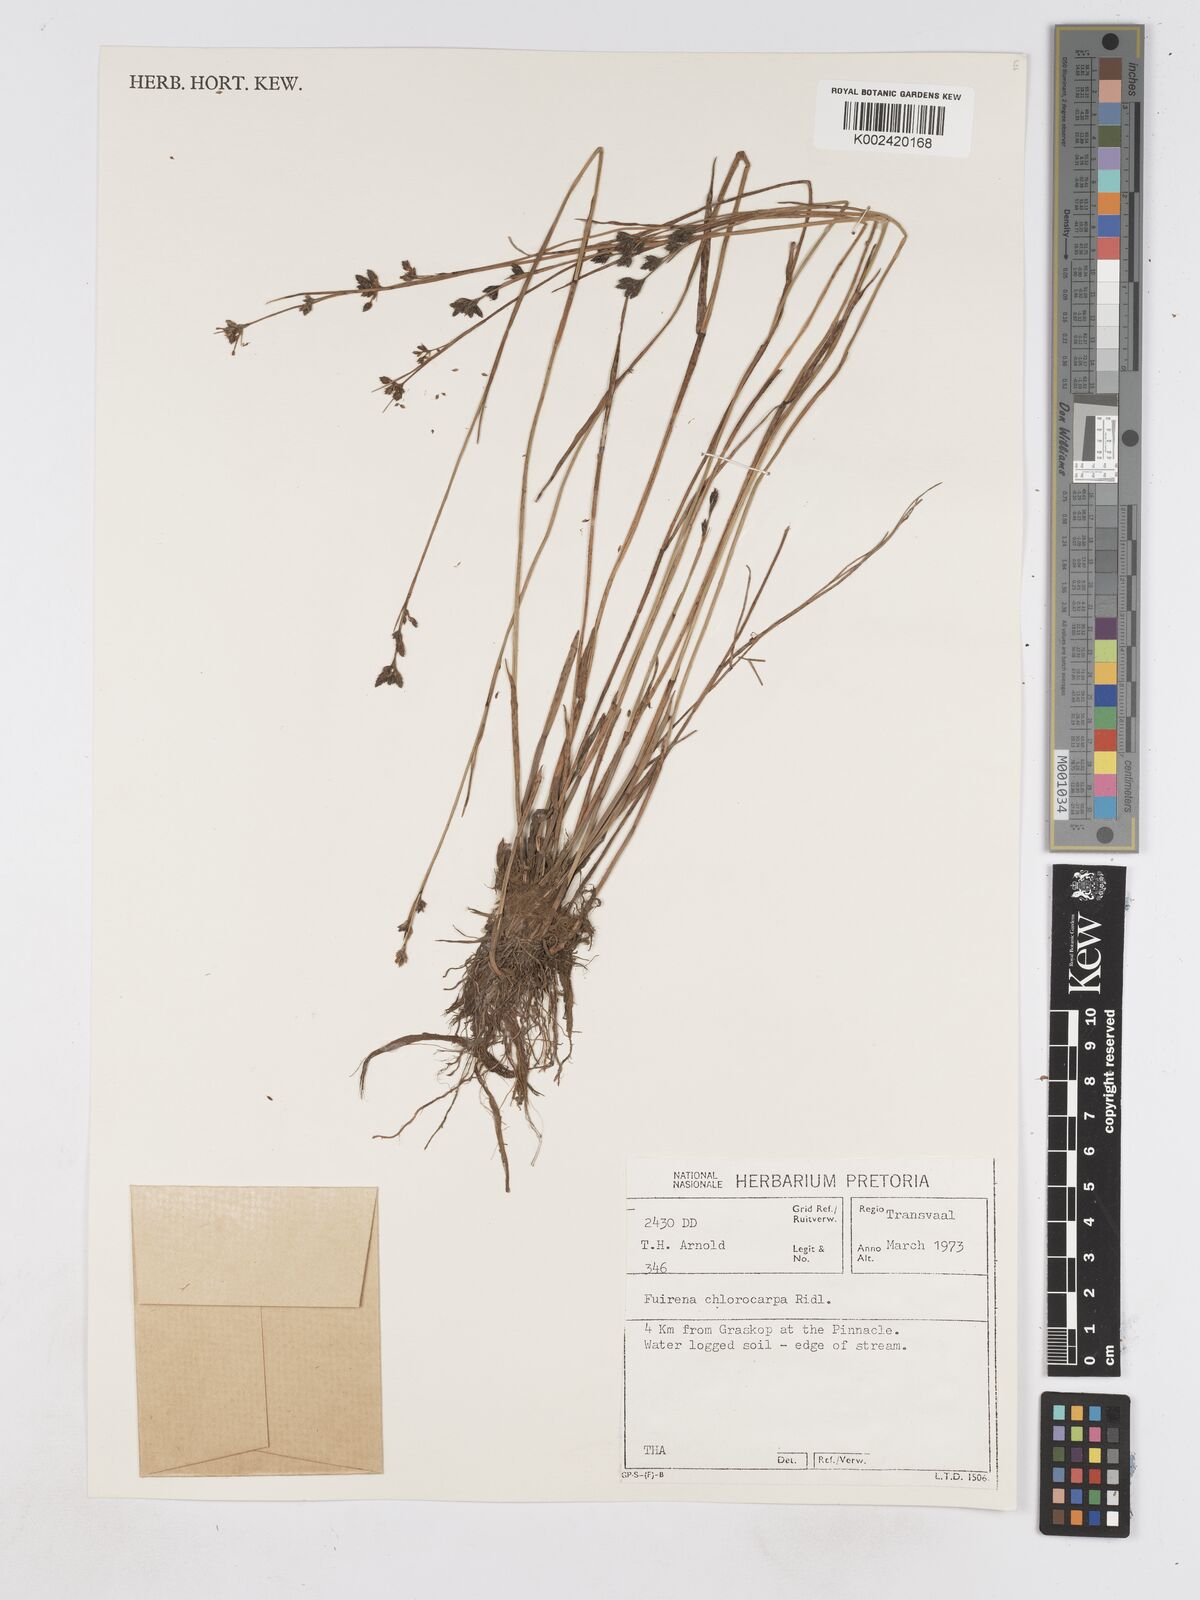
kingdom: Plantae
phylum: Tracheophyta
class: Liliopsida
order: Poales
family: Cyperaceae
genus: Fuirena
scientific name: Fuirena stricta
